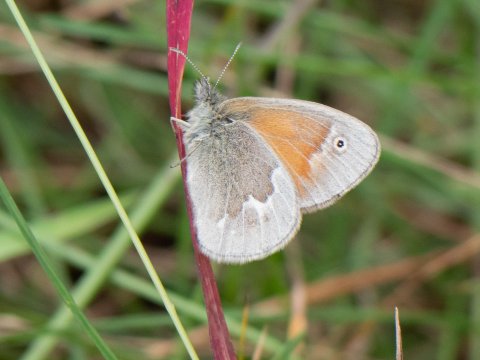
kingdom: Animalia
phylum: Arthropoda
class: Insecta
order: Lepidoptera
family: Nymphalidae
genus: Coenonympha
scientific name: Coenonympha california
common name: California Ringlet
